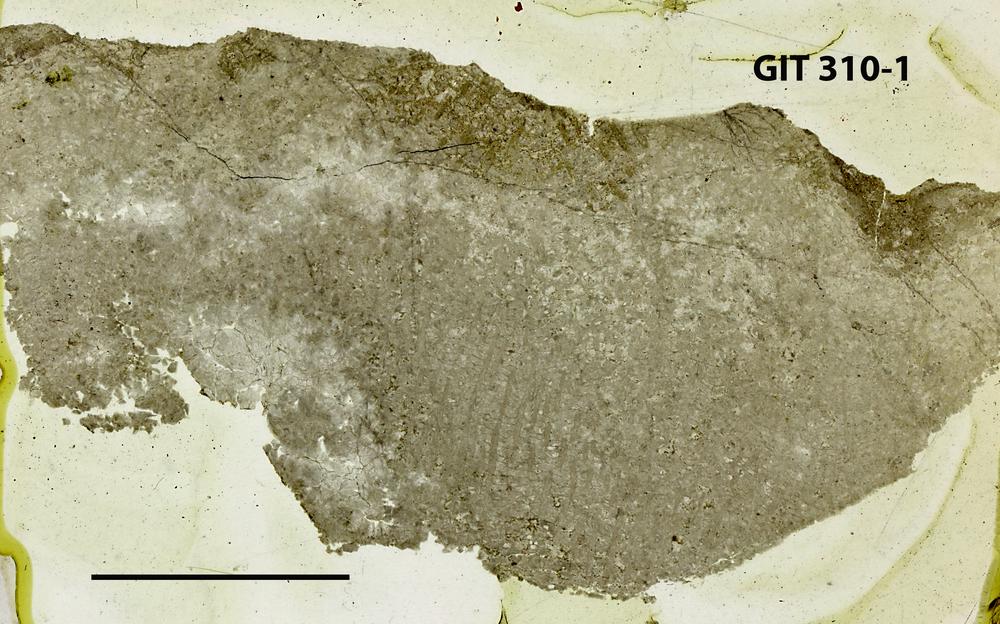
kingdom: Animalia
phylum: Porifera
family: Labechiidae
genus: Labechia
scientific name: Labechia
